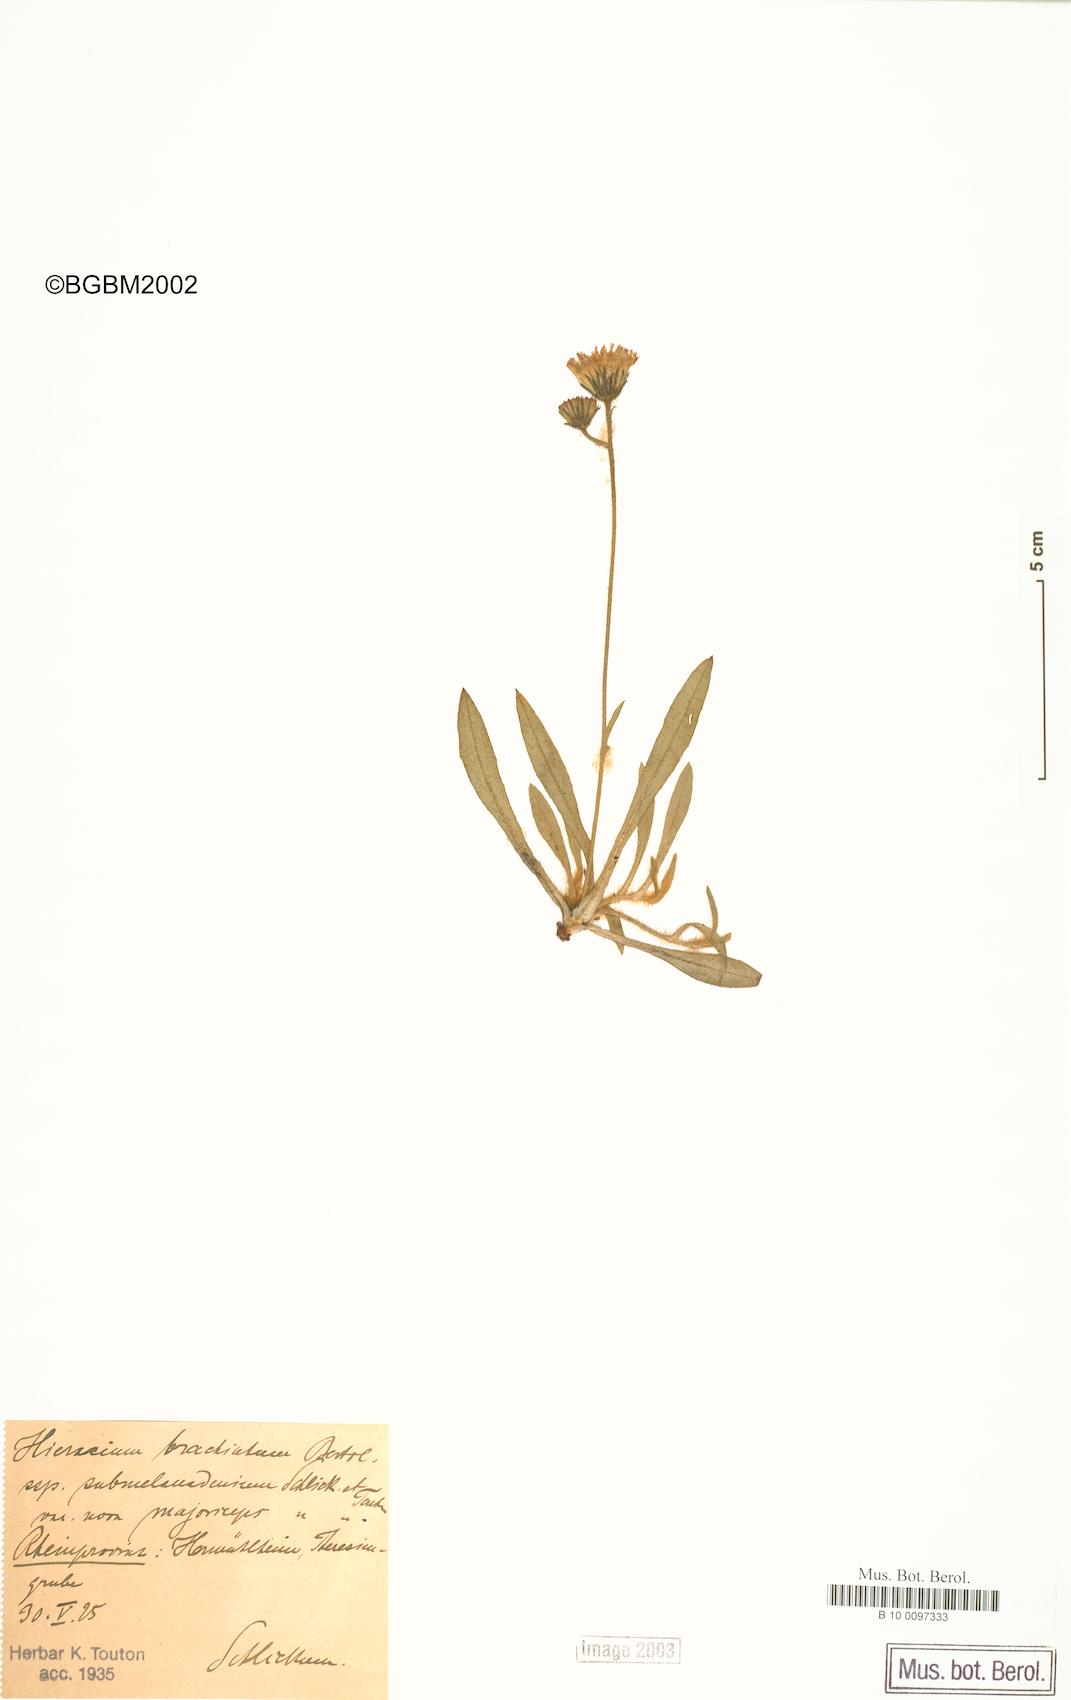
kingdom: Plantae
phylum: Tracheophyta
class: Magnoliopsida
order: Asterales
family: Asteraceae
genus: Pilosella
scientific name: Pilosella acutifolia
